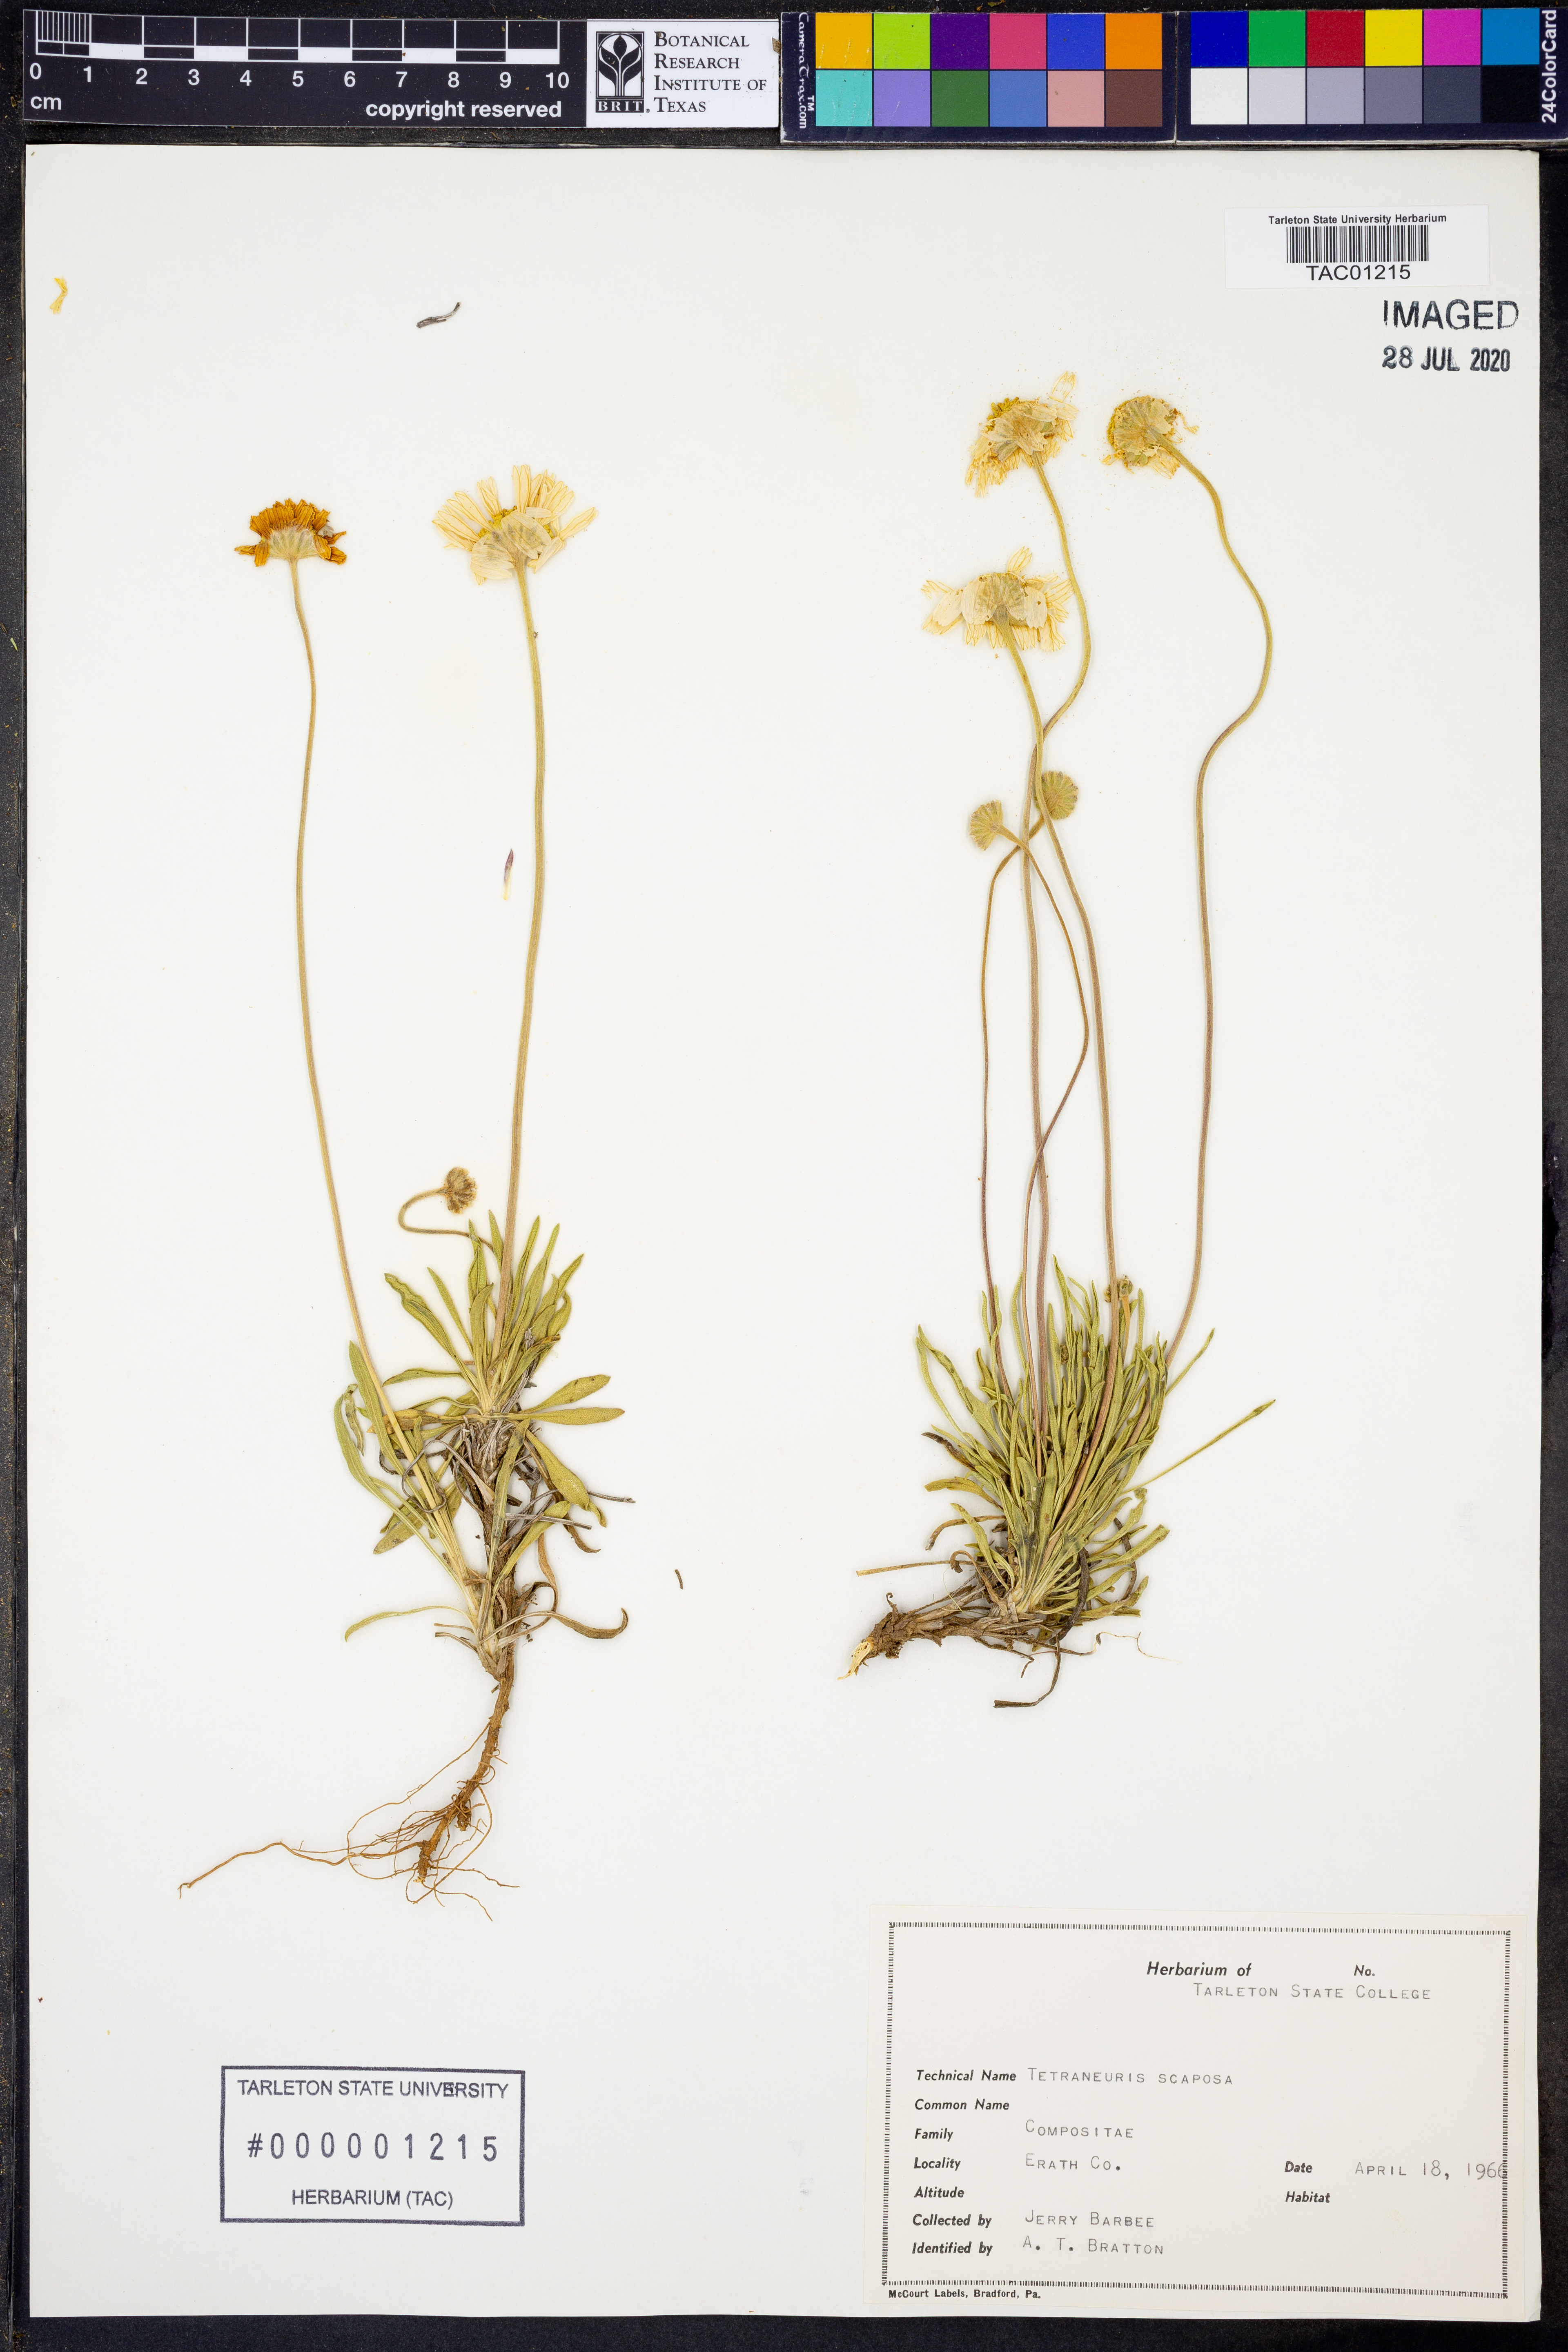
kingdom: Plantae
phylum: Tracheophyta
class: Magnoliopsida
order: Asterales
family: Asteraceae
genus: Tetraneuris
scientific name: Tetraneuris scaposa
